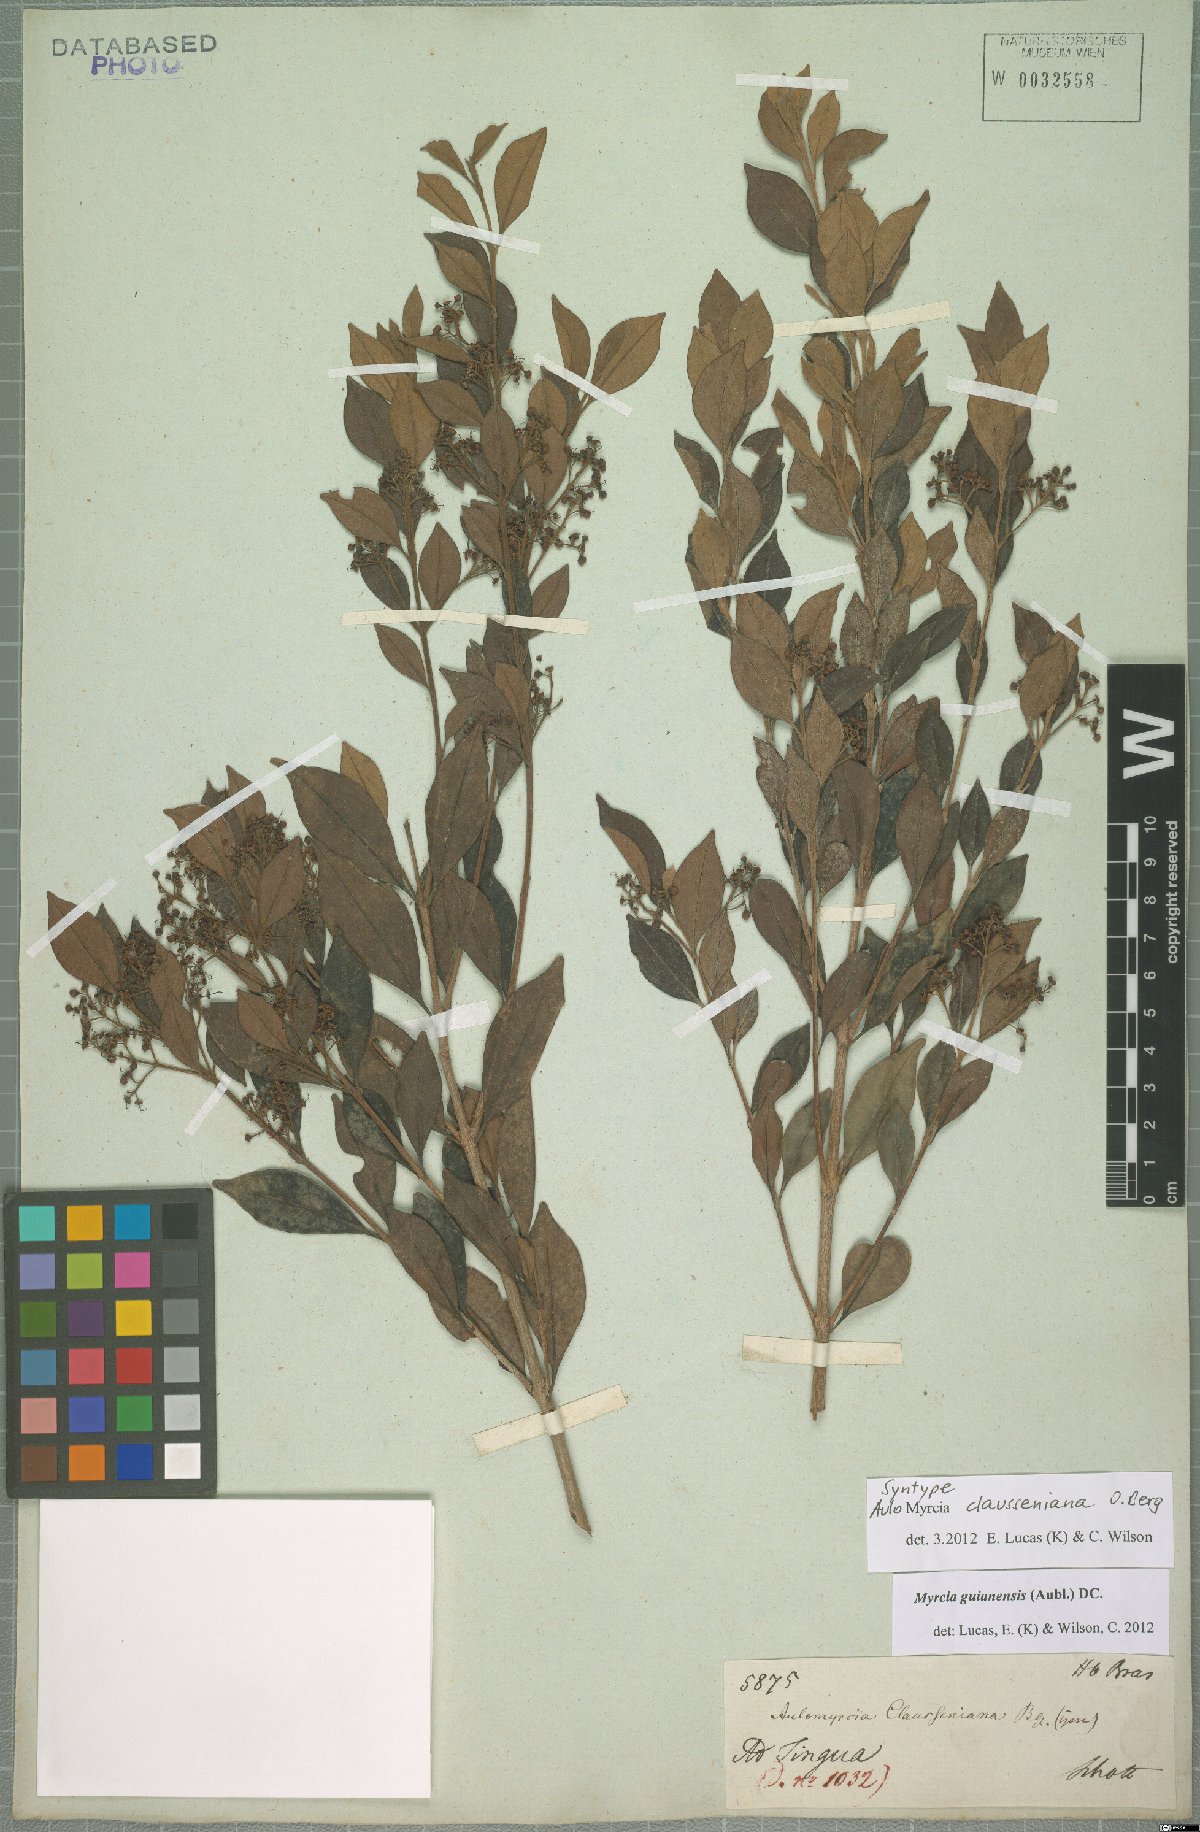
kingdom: Plantae
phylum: Tracheophyta
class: Magnoliopsida
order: Myrtales
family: Myrtaceae
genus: Myrcia
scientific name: Myrcia guianensis
